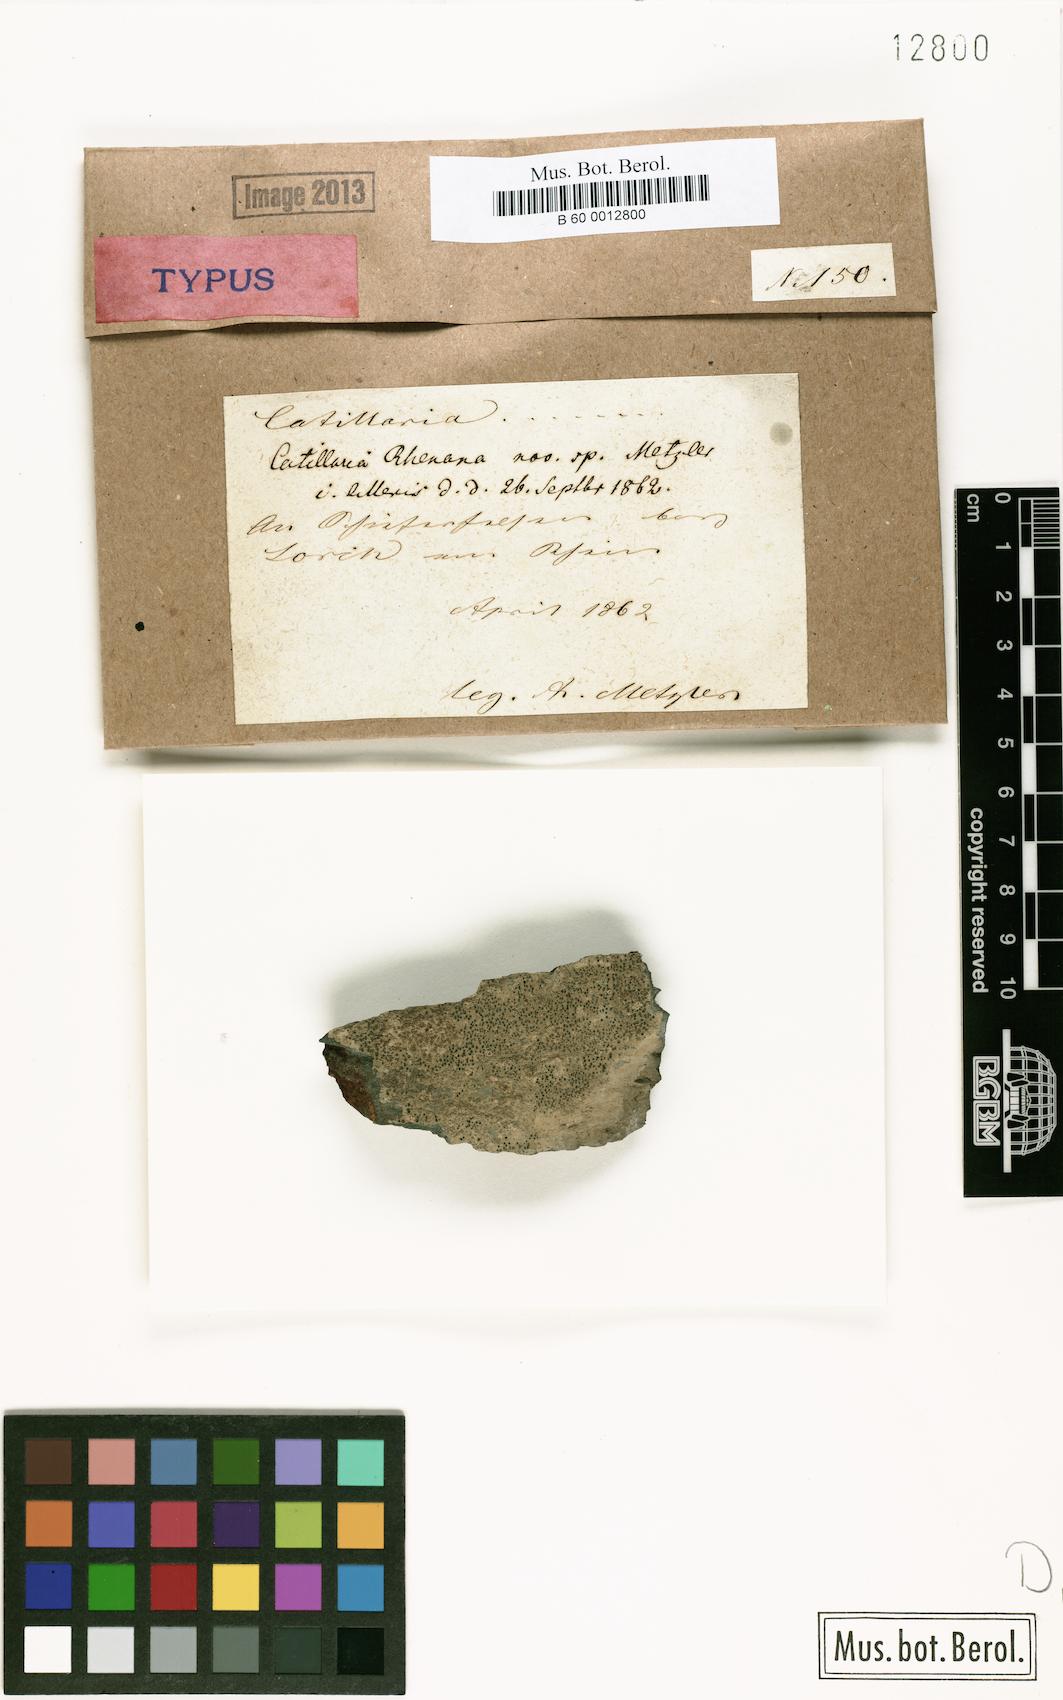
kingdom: Fungi
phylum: Ascomycota
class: Lecanoromycetes
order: Lecanorales
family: Catillariaceae
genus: Catillaria
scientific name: Catillaria
